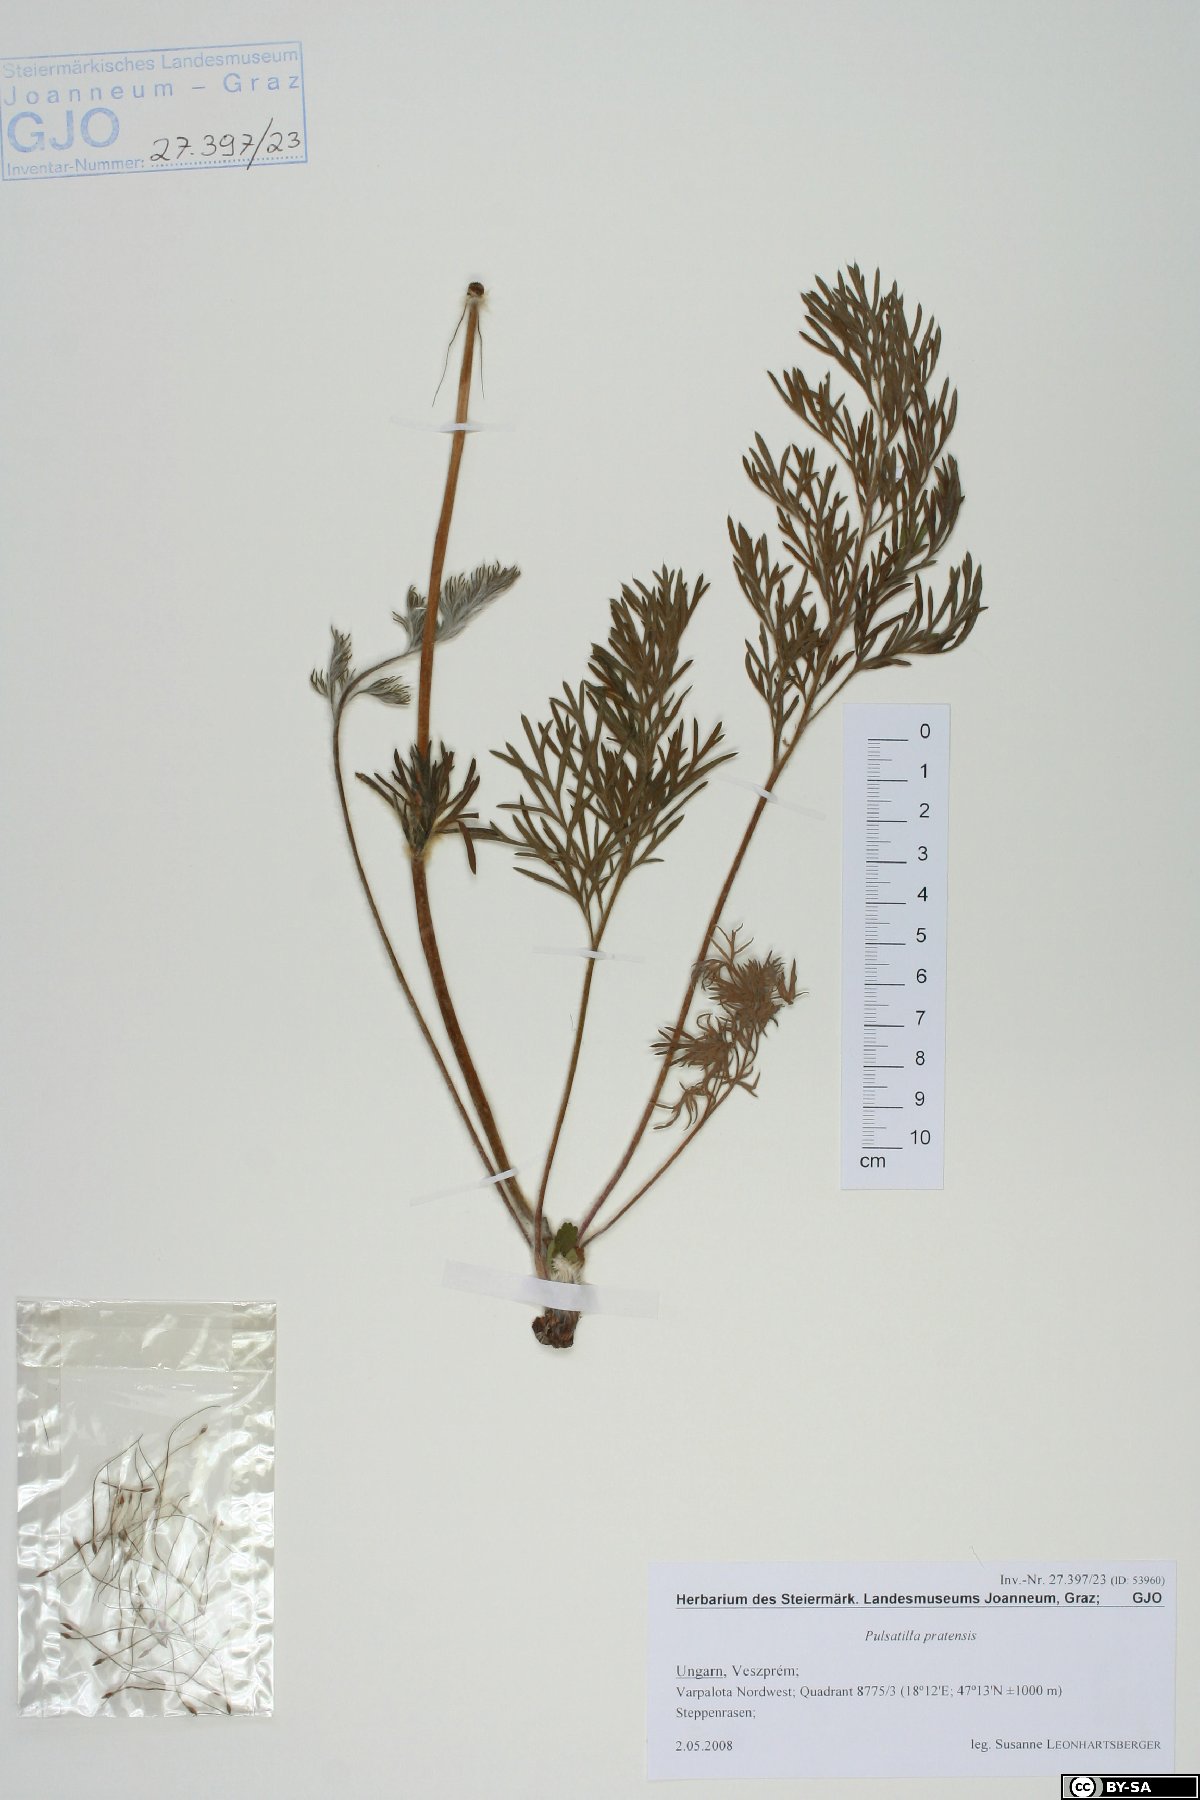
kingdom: Plantae
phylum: Tracheophyta
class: Magnoliopsida
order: Ranunculales
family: Ranunculaceae
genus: Pulsatilla
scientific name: Pulsatilla pratensis
